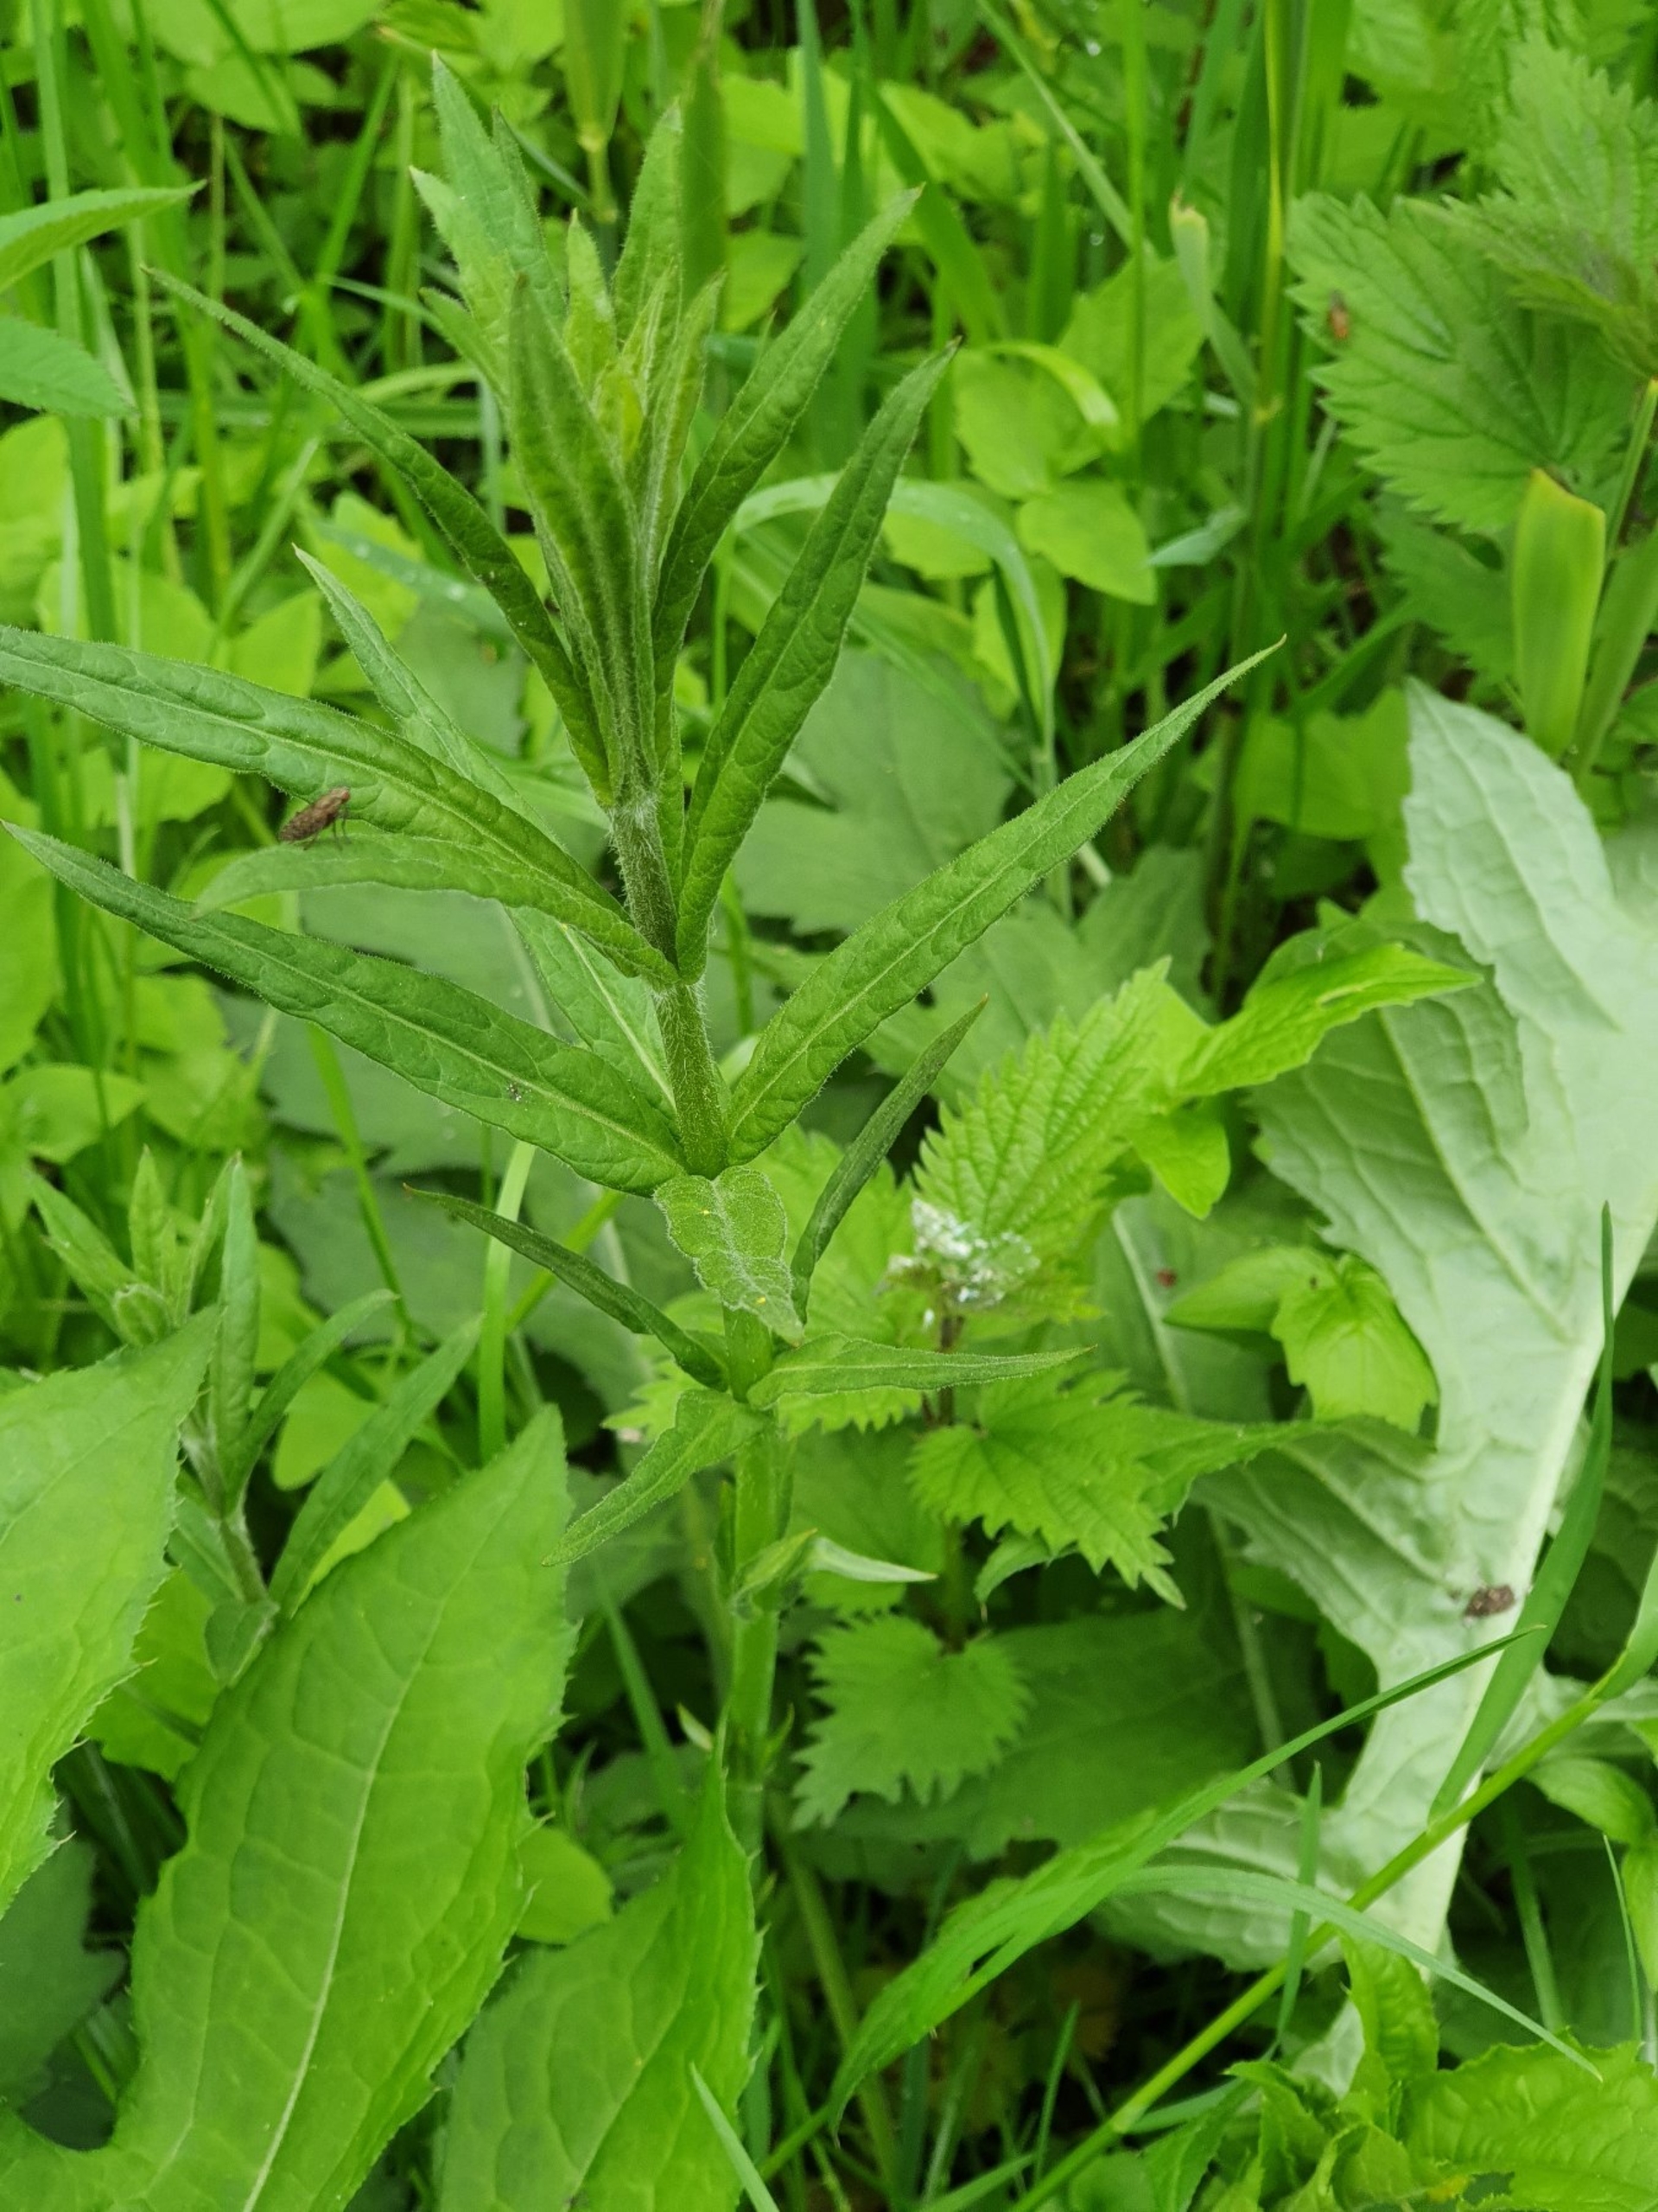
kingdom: Plantae
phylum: Tracheophyta
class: Magnoliopsida
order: Ericales
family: Primulaceae
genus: Lysimachia
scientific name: Lysimachia thyrsiflora
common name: Dusk-fredløs
